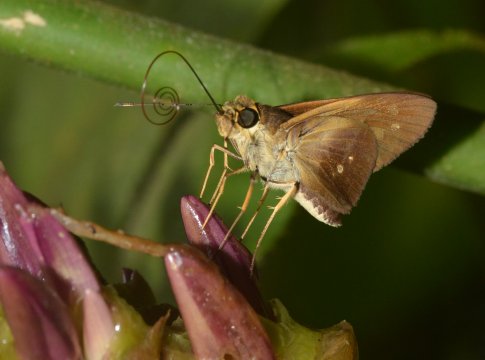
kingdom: Animalia
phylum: Arthropoda
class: Insecta
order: Lepidoptera
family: Hesperiidae
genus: Saliana
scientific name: Saliana triangularis
